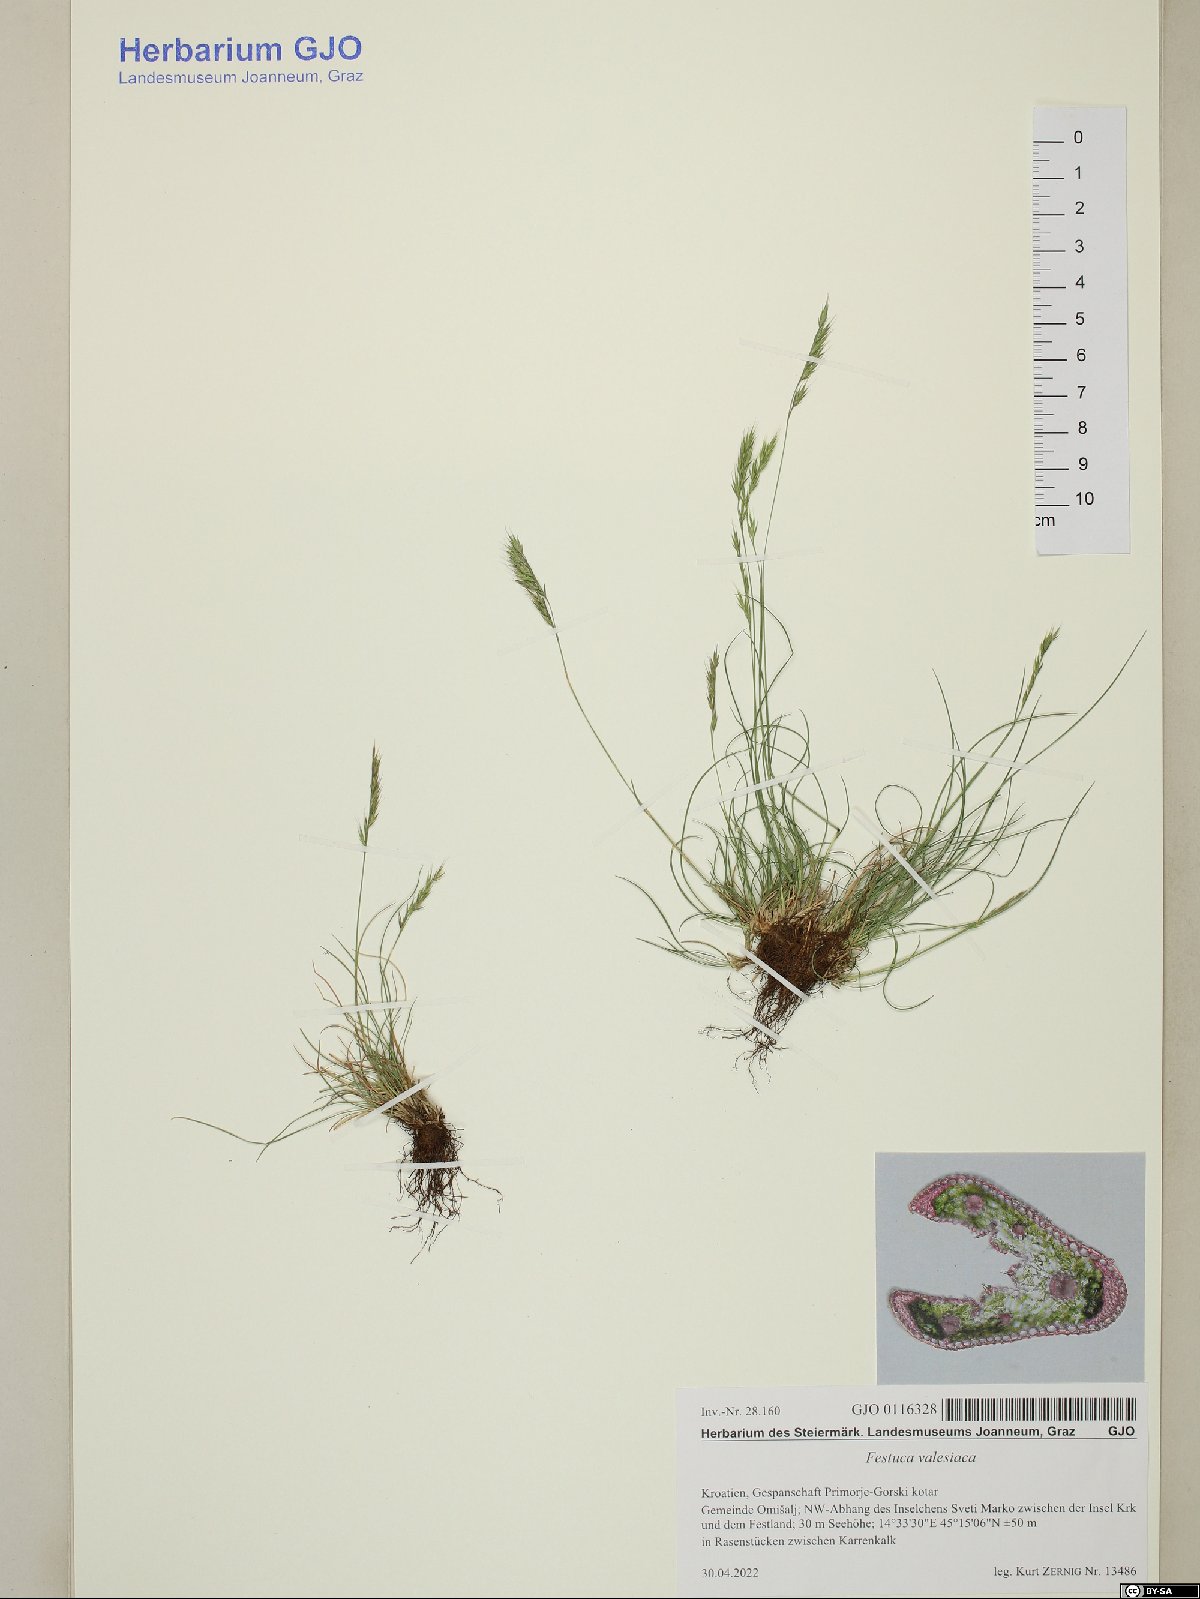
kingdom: Plantae
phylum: Tracheophyta
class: Liliopsida
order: Poales
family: Poaceae
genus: Festuca
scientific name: Festuca valesiaca
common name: Volga fescue
